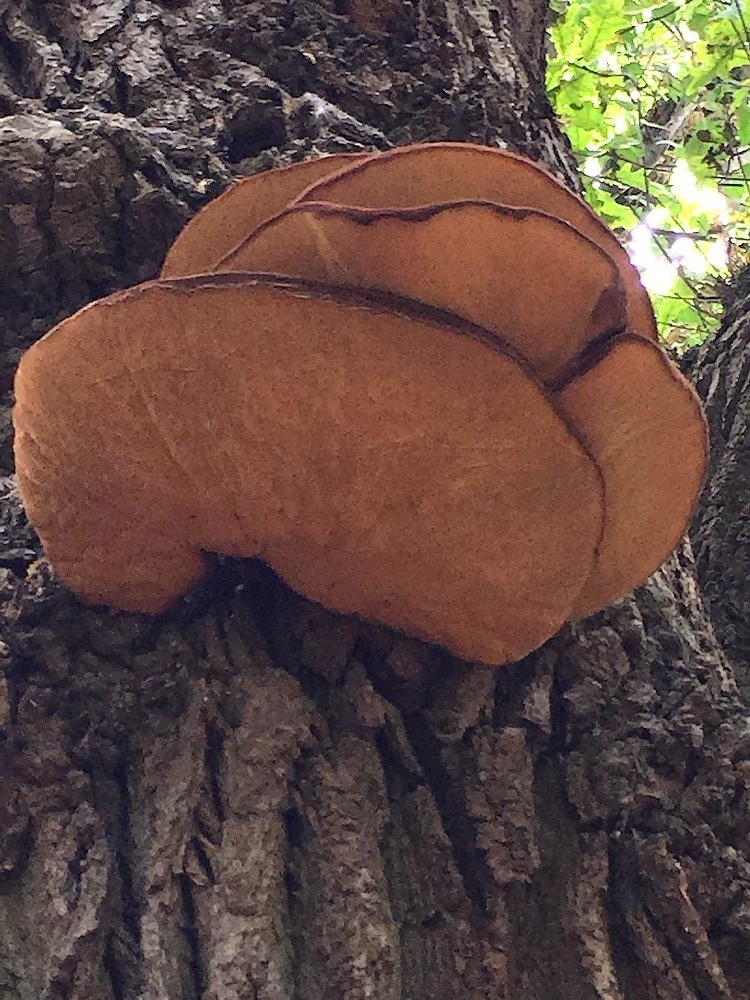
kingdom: Fungi
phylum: Basidiomycota
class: Agaricomycetes
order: Agaricales
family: Fistulinaceae
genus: Fistulina
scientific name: Fistulina hepatica
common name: oksetunge
